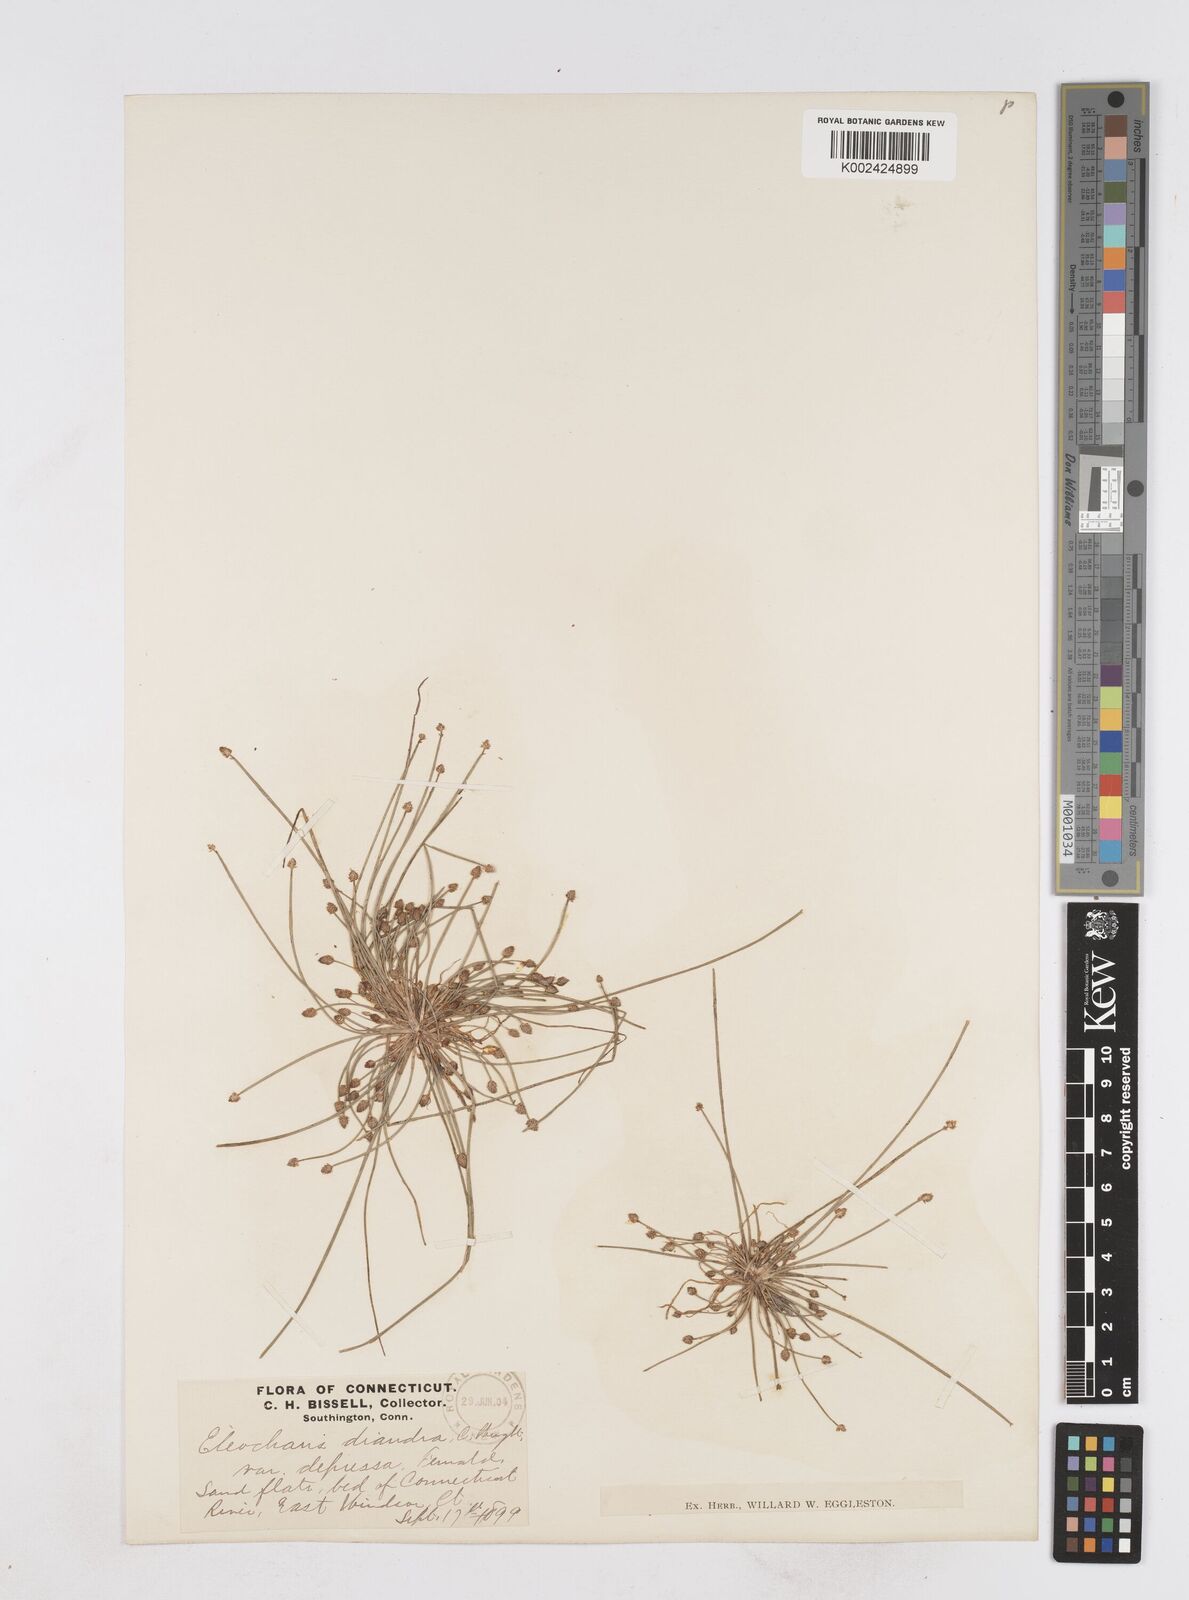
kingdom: Plantae
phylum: Tracheophyta
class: Liliopsida
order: Poales
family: Cyperaceae
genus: Eleocharis
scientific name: Eleocharis ovata
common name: Oval spike-rush
